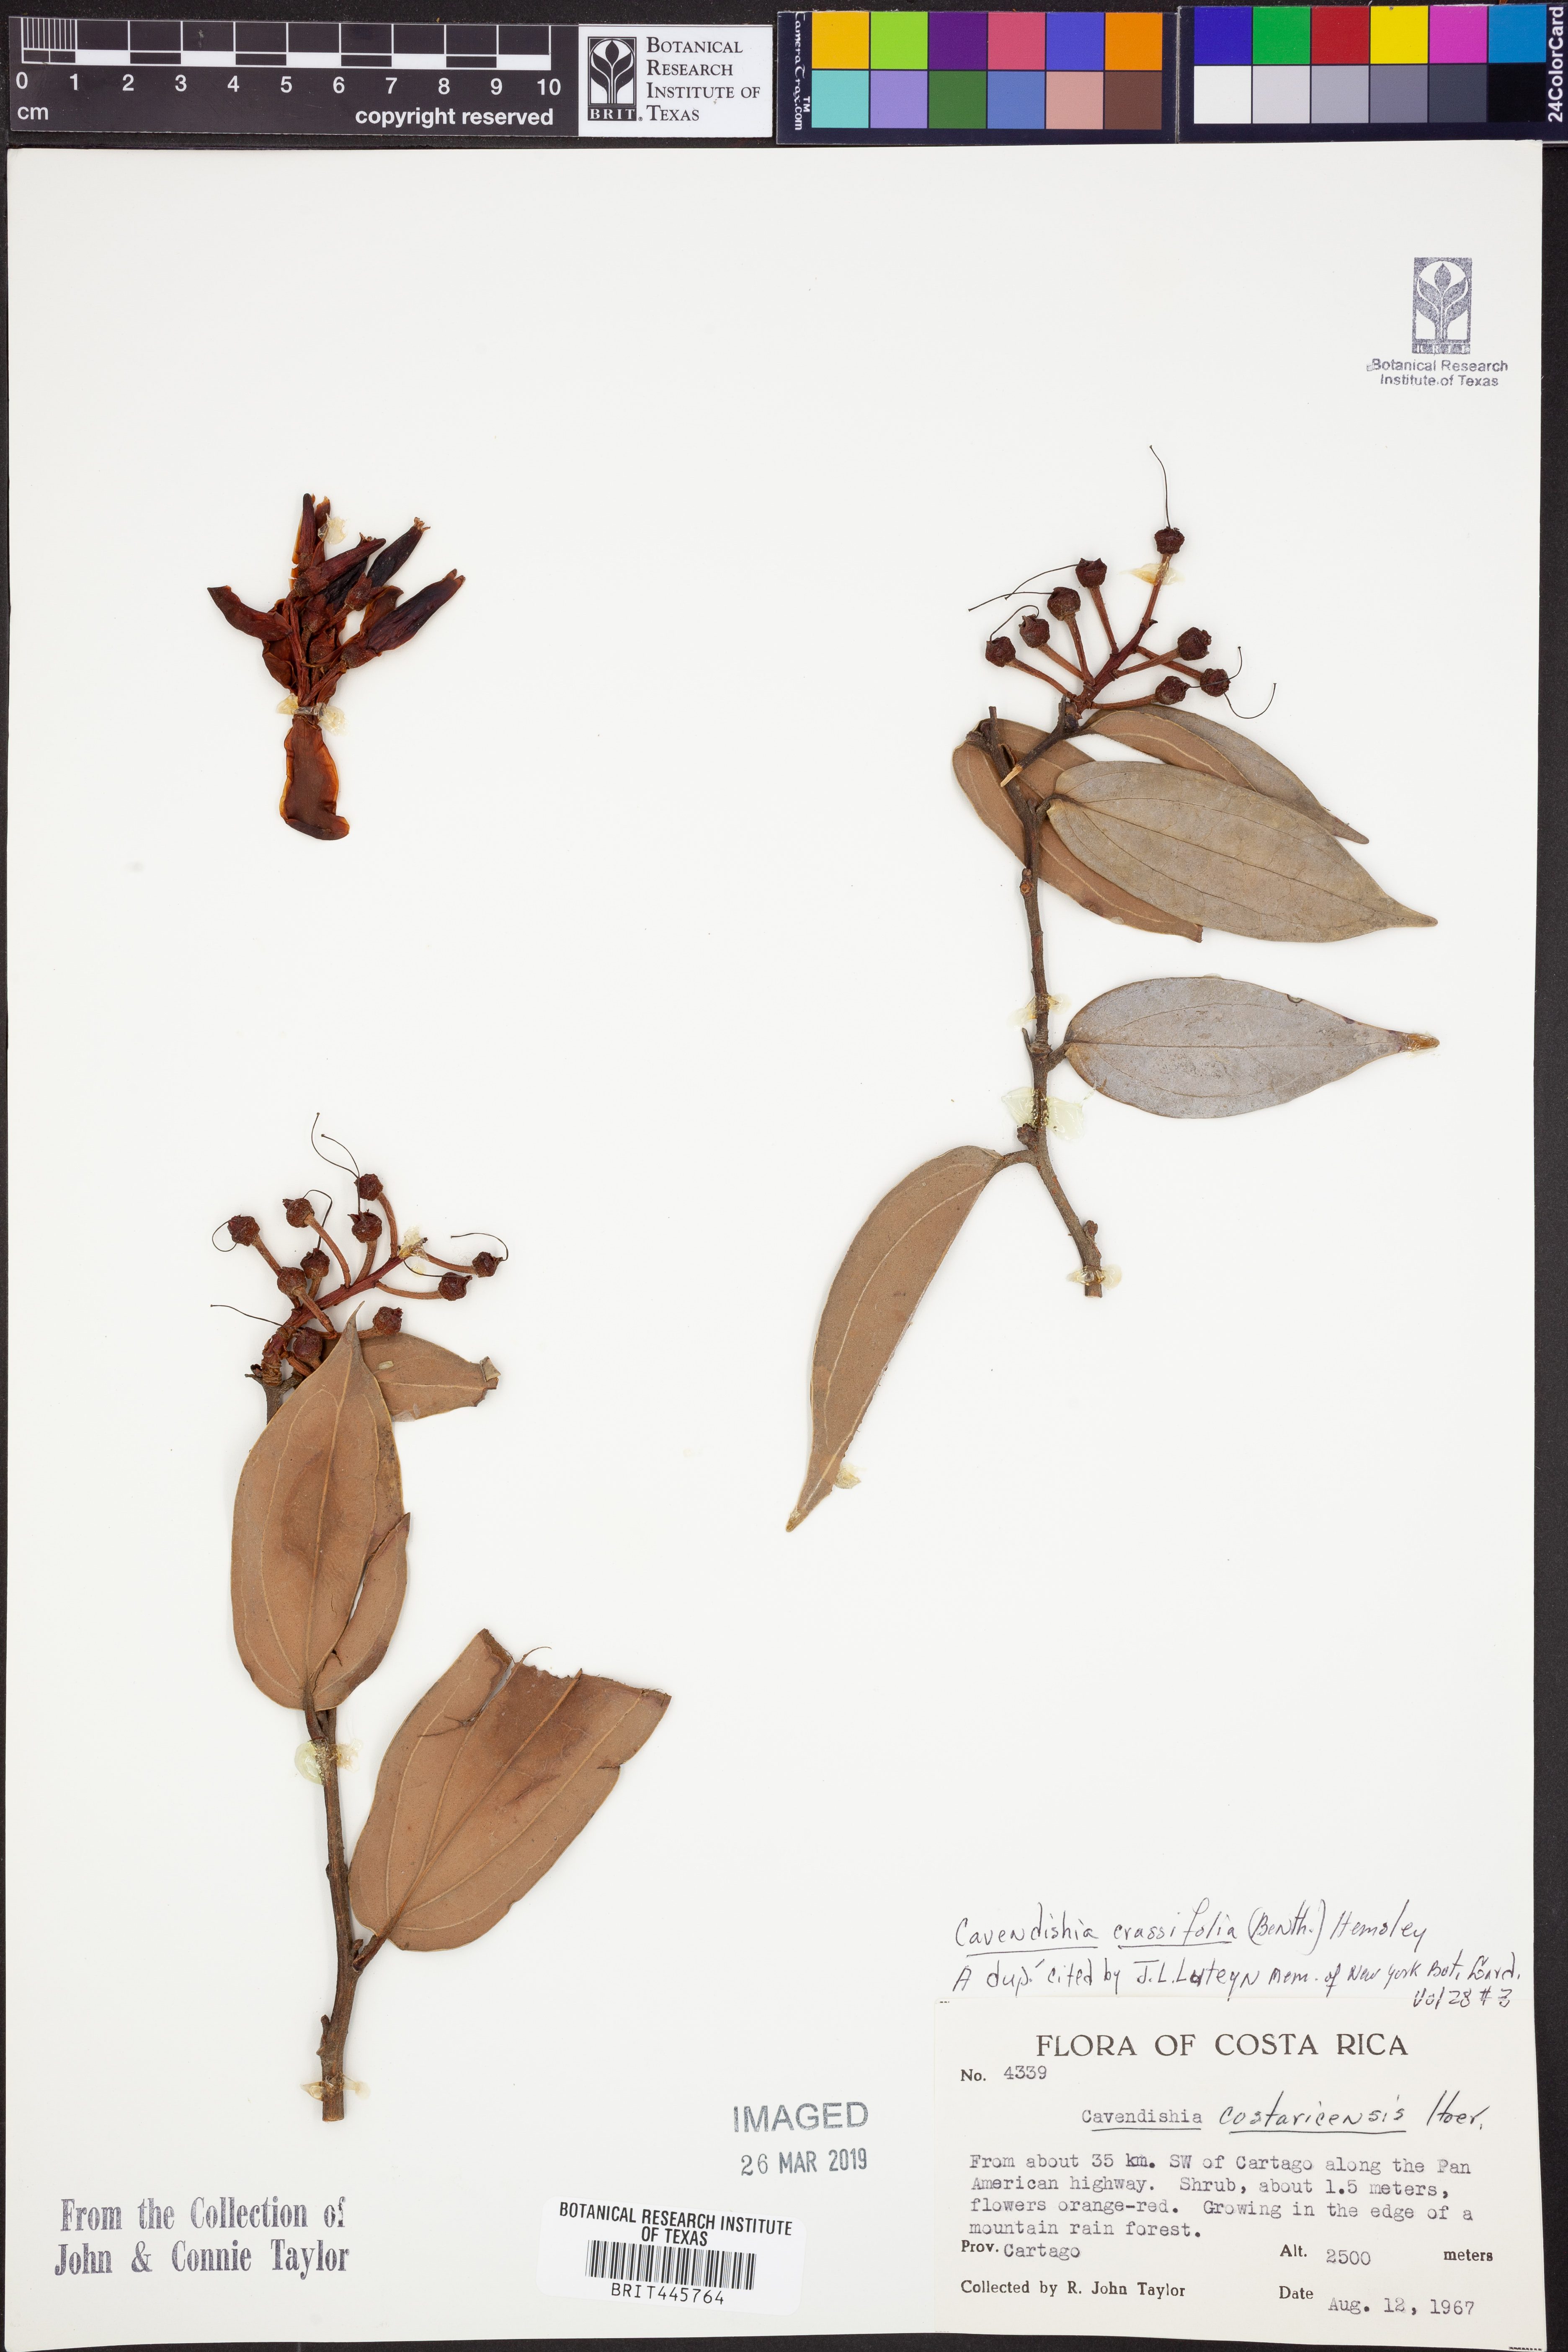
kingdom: Plantae
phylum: Tracheophyta
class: Magnoliopsida
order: Ericales
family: Ericaceae
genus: Cavendishia
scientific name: Cavendishia bracteata
